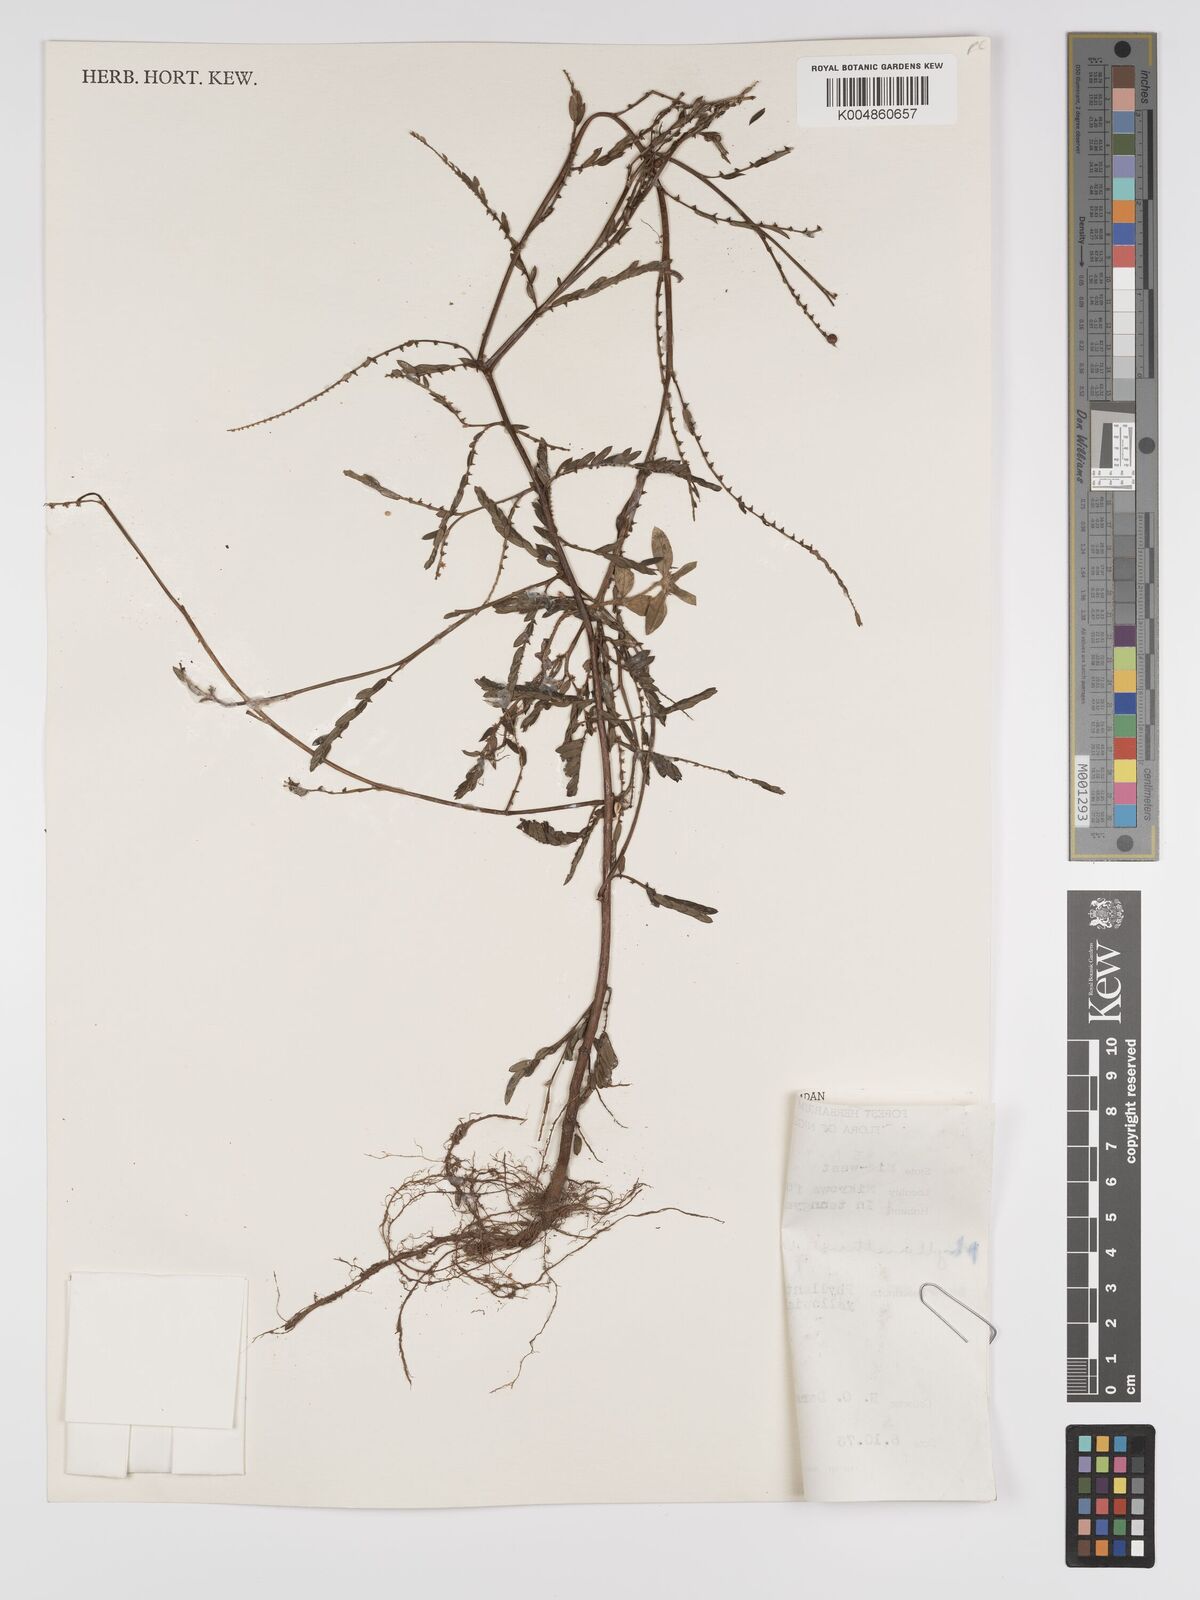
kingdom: Plantae
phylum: Tracheophyta
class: Magnoliopsida
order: Malpighiales
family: Phyllanthaceae
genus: Phyllanthus
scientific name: Phyllanthus urinaria
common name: Chamber bitter
